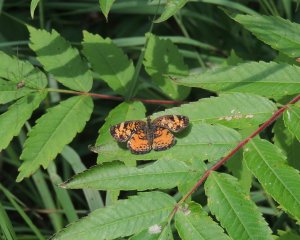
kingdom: Animalia
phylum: Arthropoda
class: Insecta
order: Lepidoptera
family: Nymphalidae
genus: Phyciodes
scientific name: Phyciodes tharos
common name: Pearl Crescent
